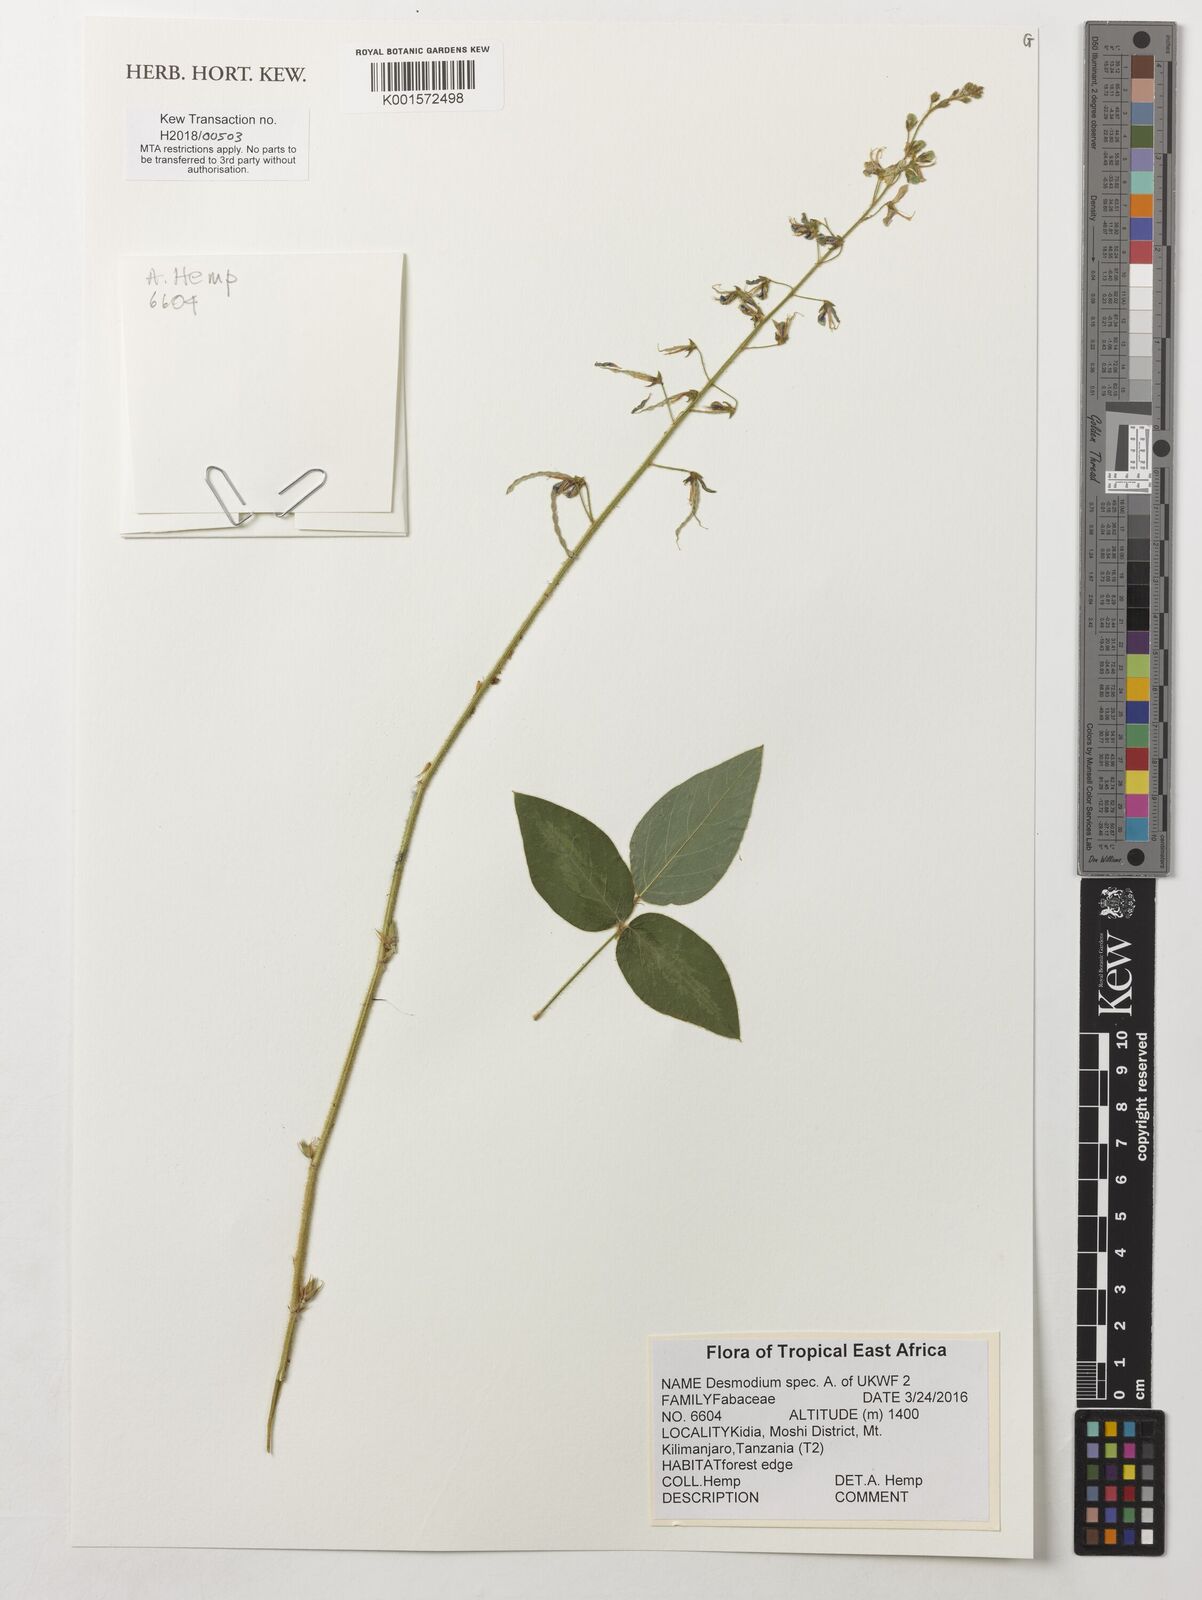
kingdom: Plantae
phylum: Tracheophyta
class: Magnoliopsida
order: Fabales
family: Fabaceae
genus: Desmodium
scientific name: Desmodium
